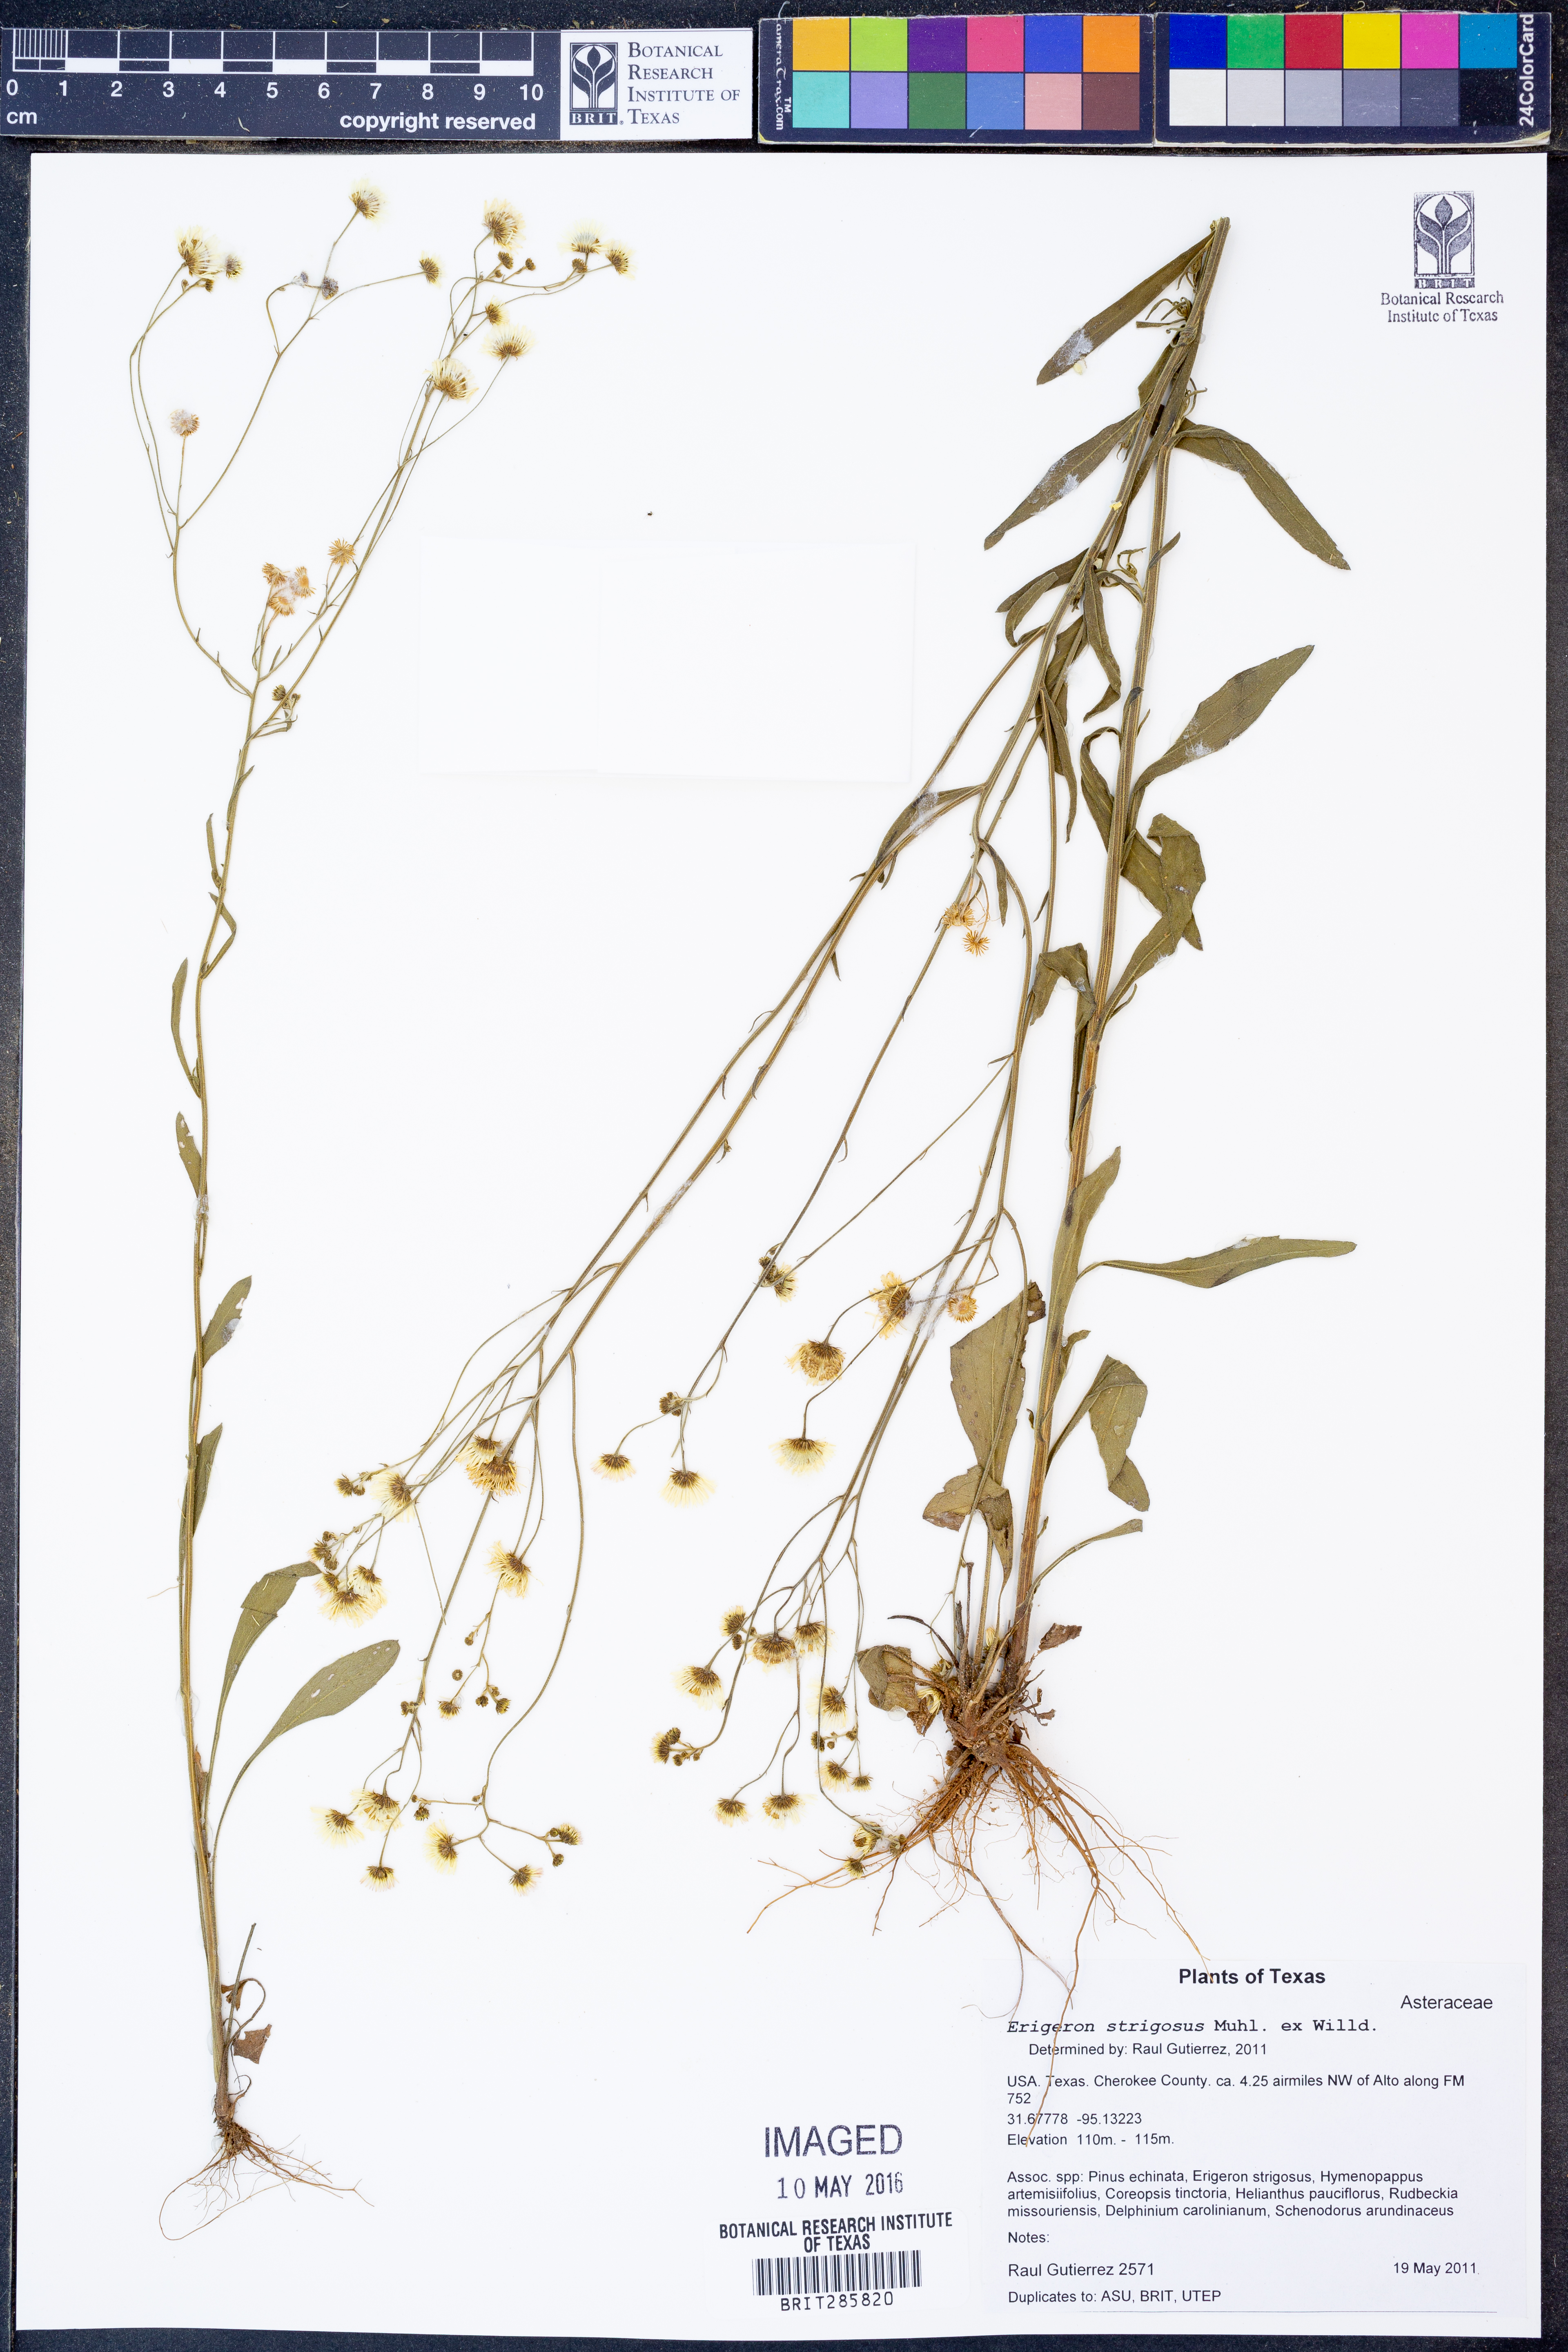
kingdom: Plantae
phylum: Tracheophyta
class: Magnoliopsida
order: Asterales
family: Asteraceae
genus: Erigeron
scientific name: Erigeron strigosus
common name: Common eastern fleabane
